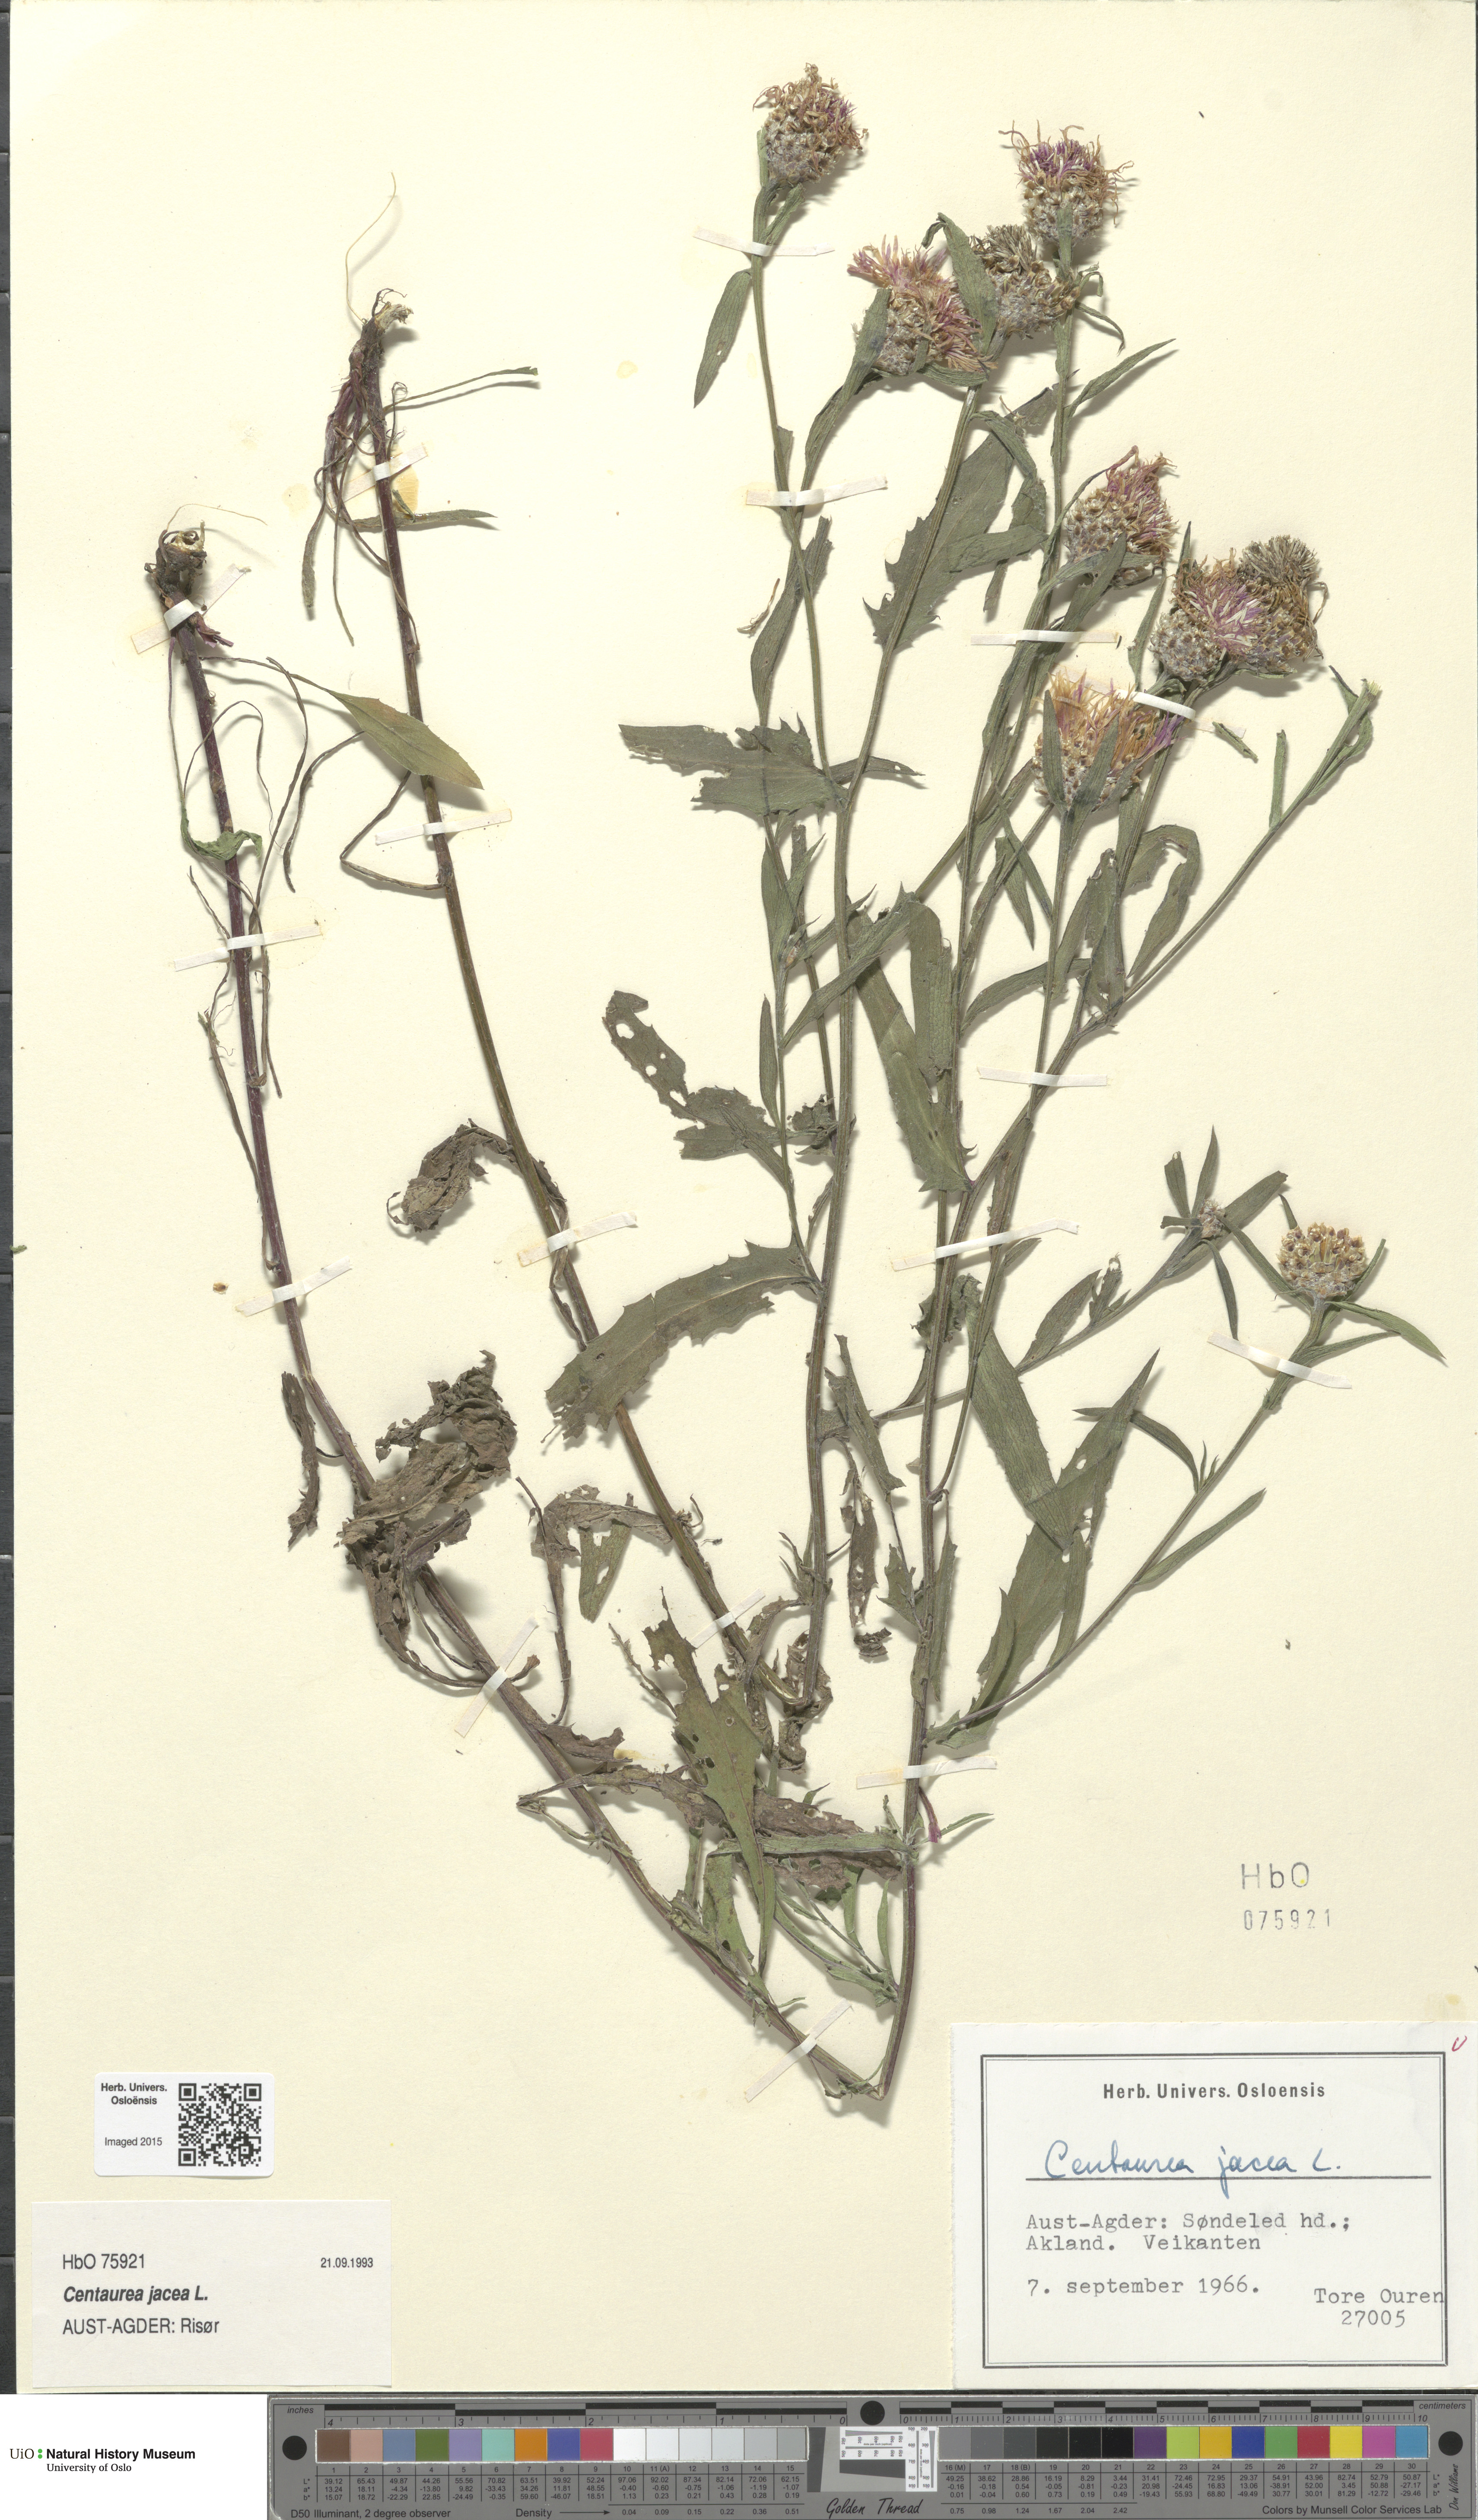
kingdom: Plantae
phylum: Tracheophyta
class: Magnoliopsida
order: Asterales
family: Asteraceae
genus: Centaurea
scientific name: Centaurea jacea
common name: Brown knapweed
